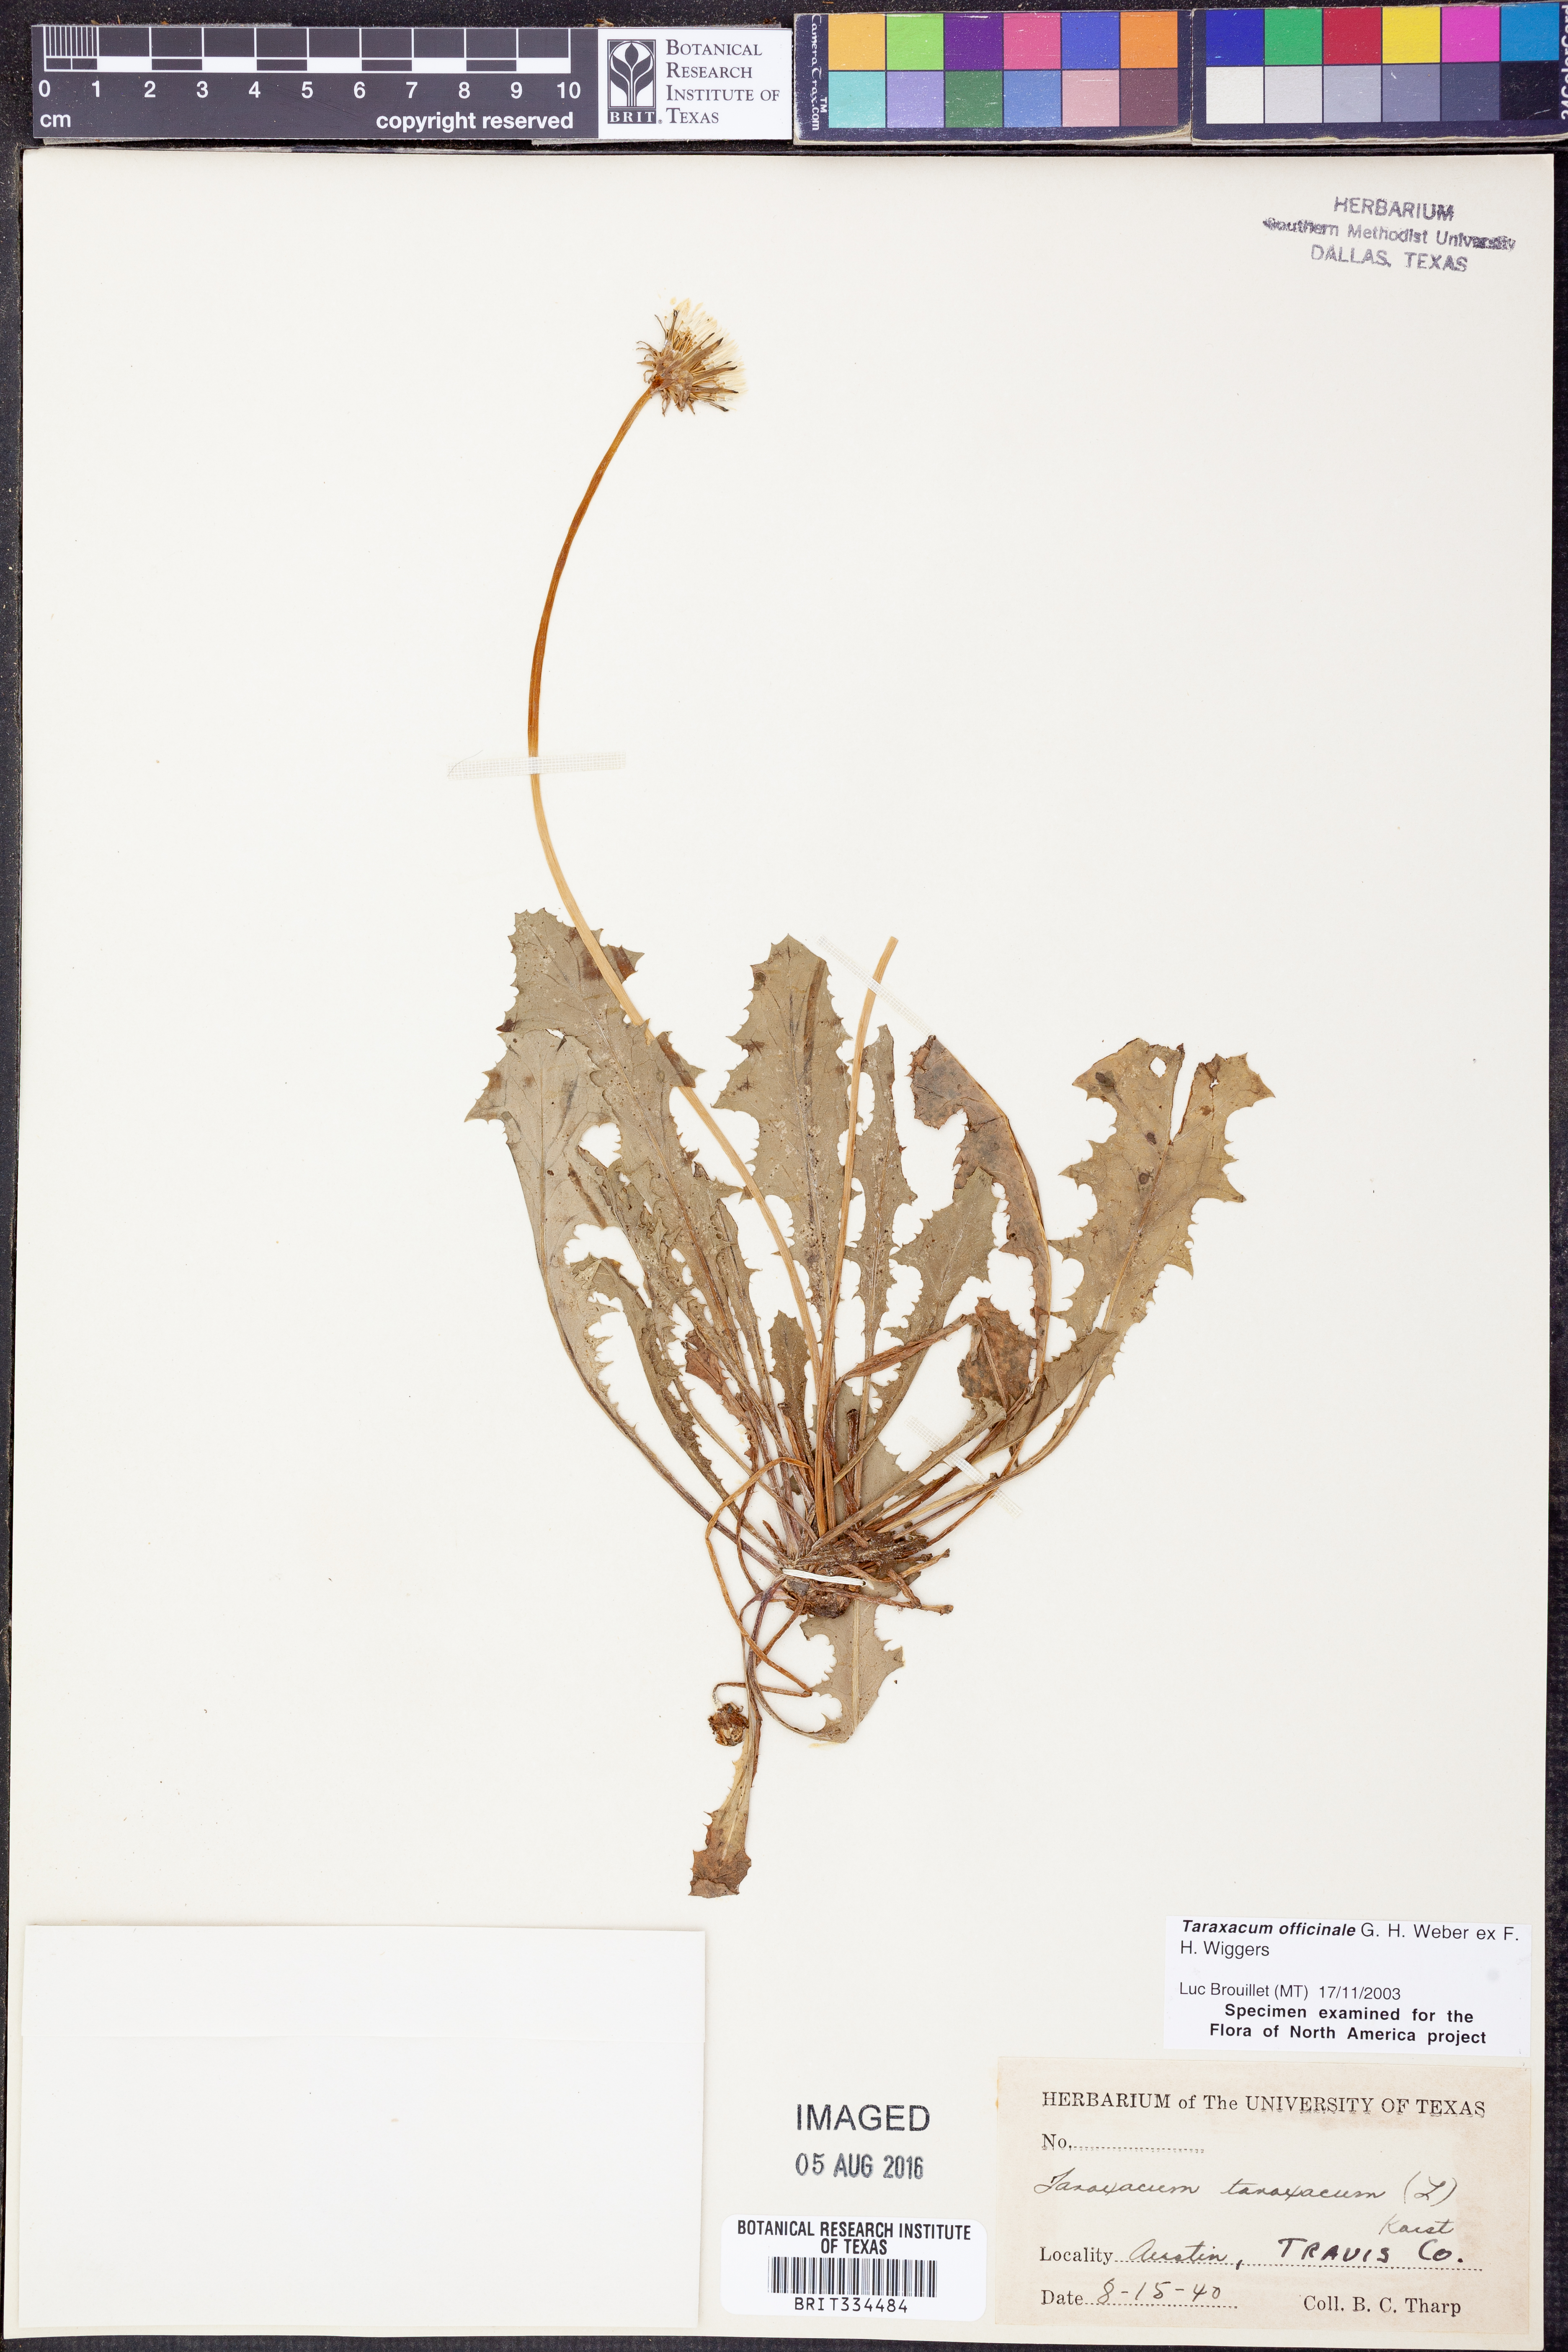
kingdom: Plantae
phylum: Tracheophyta
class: Magnoliopsida
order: Asterales
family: Asteraceae
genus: Taraxacum
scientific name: Taraxacum officinale
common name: Common dandelion
